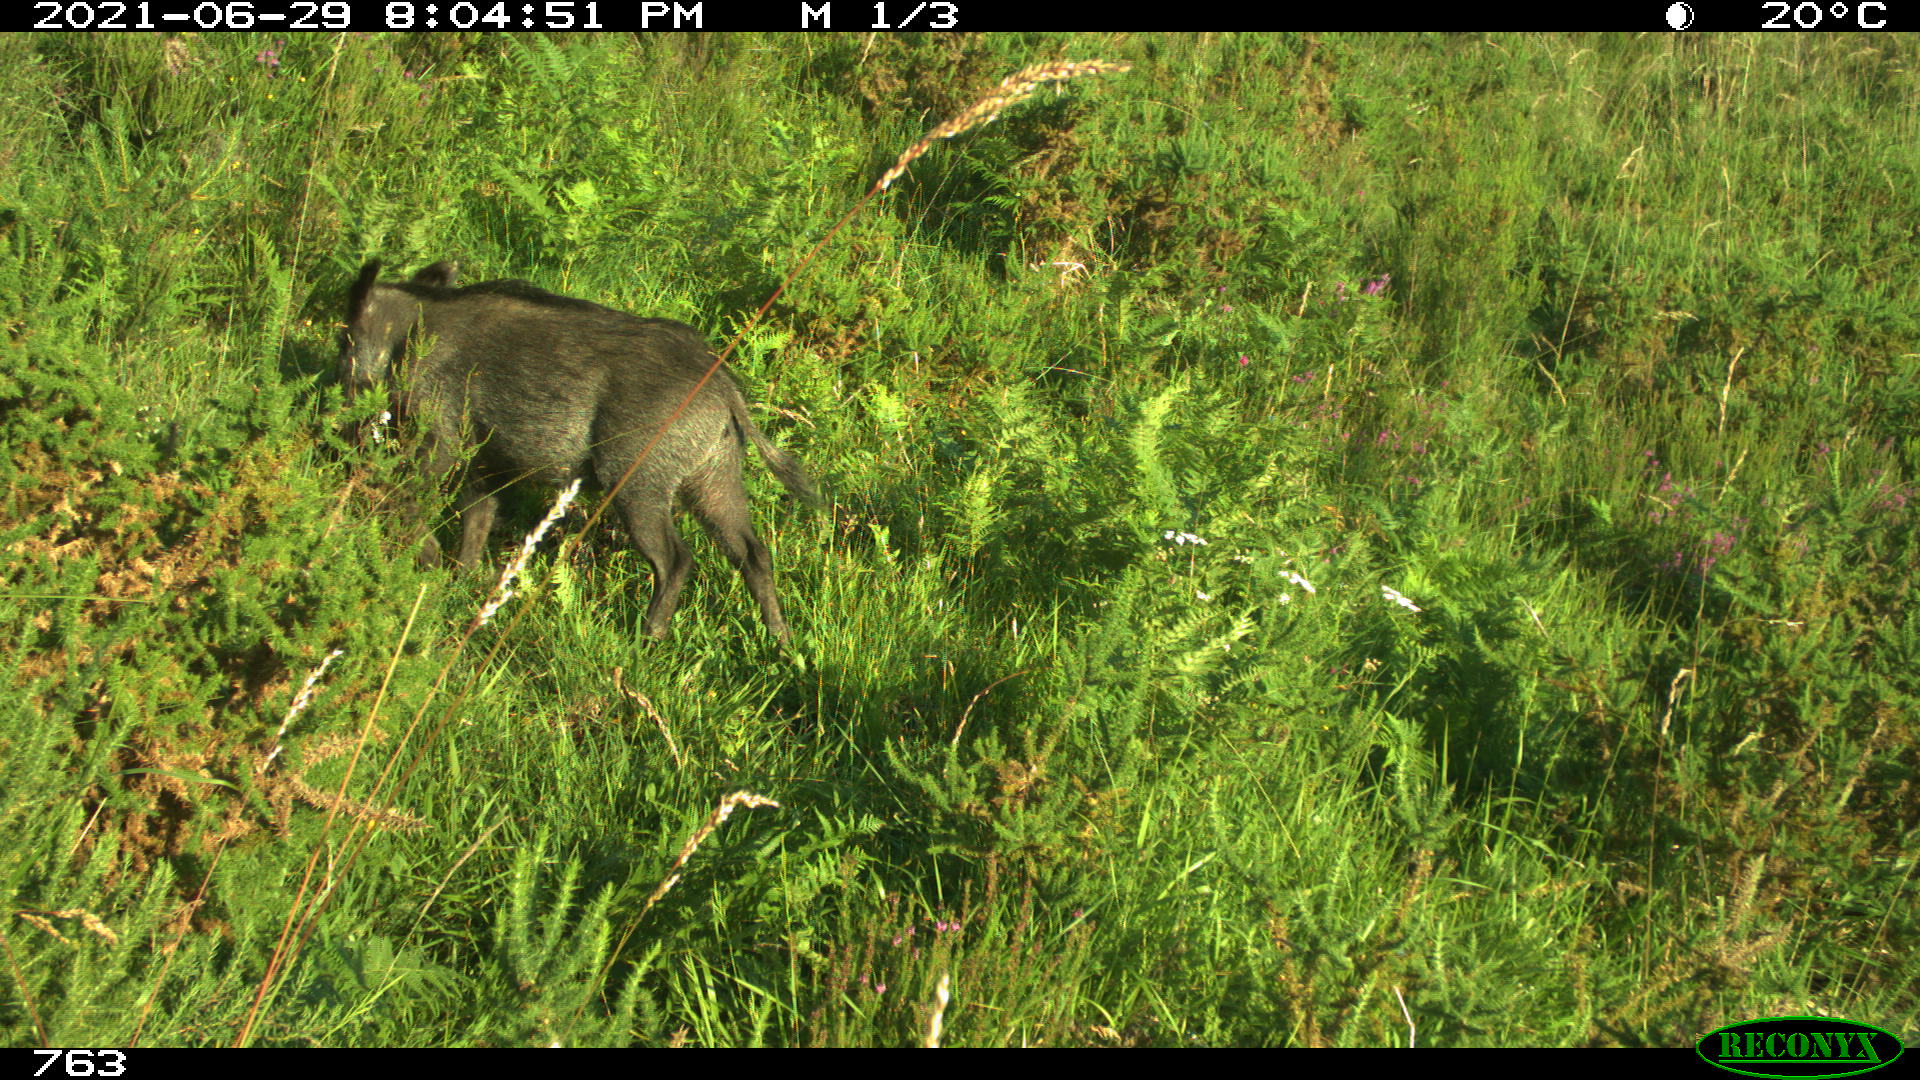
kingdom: Animalia
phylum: Chordata
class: Mammalia
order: Artiodactyla
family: Suidae
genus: Sus
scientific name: Sus scrofa
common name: Wild boar
